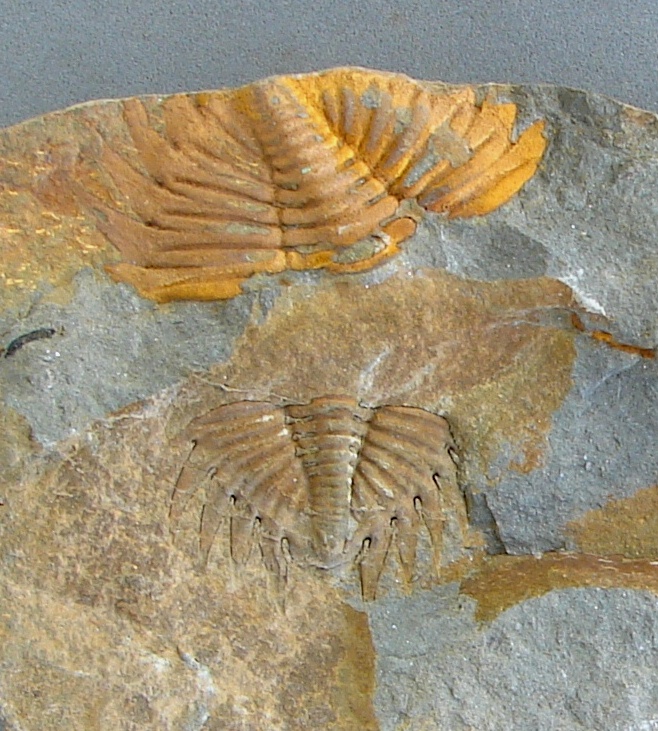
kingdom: Animalia
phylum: Arthropoda
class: Trilobita
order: Phacopida
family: Calmoniidae
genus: Treveropyge
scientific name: Treveropyge wiltziana
